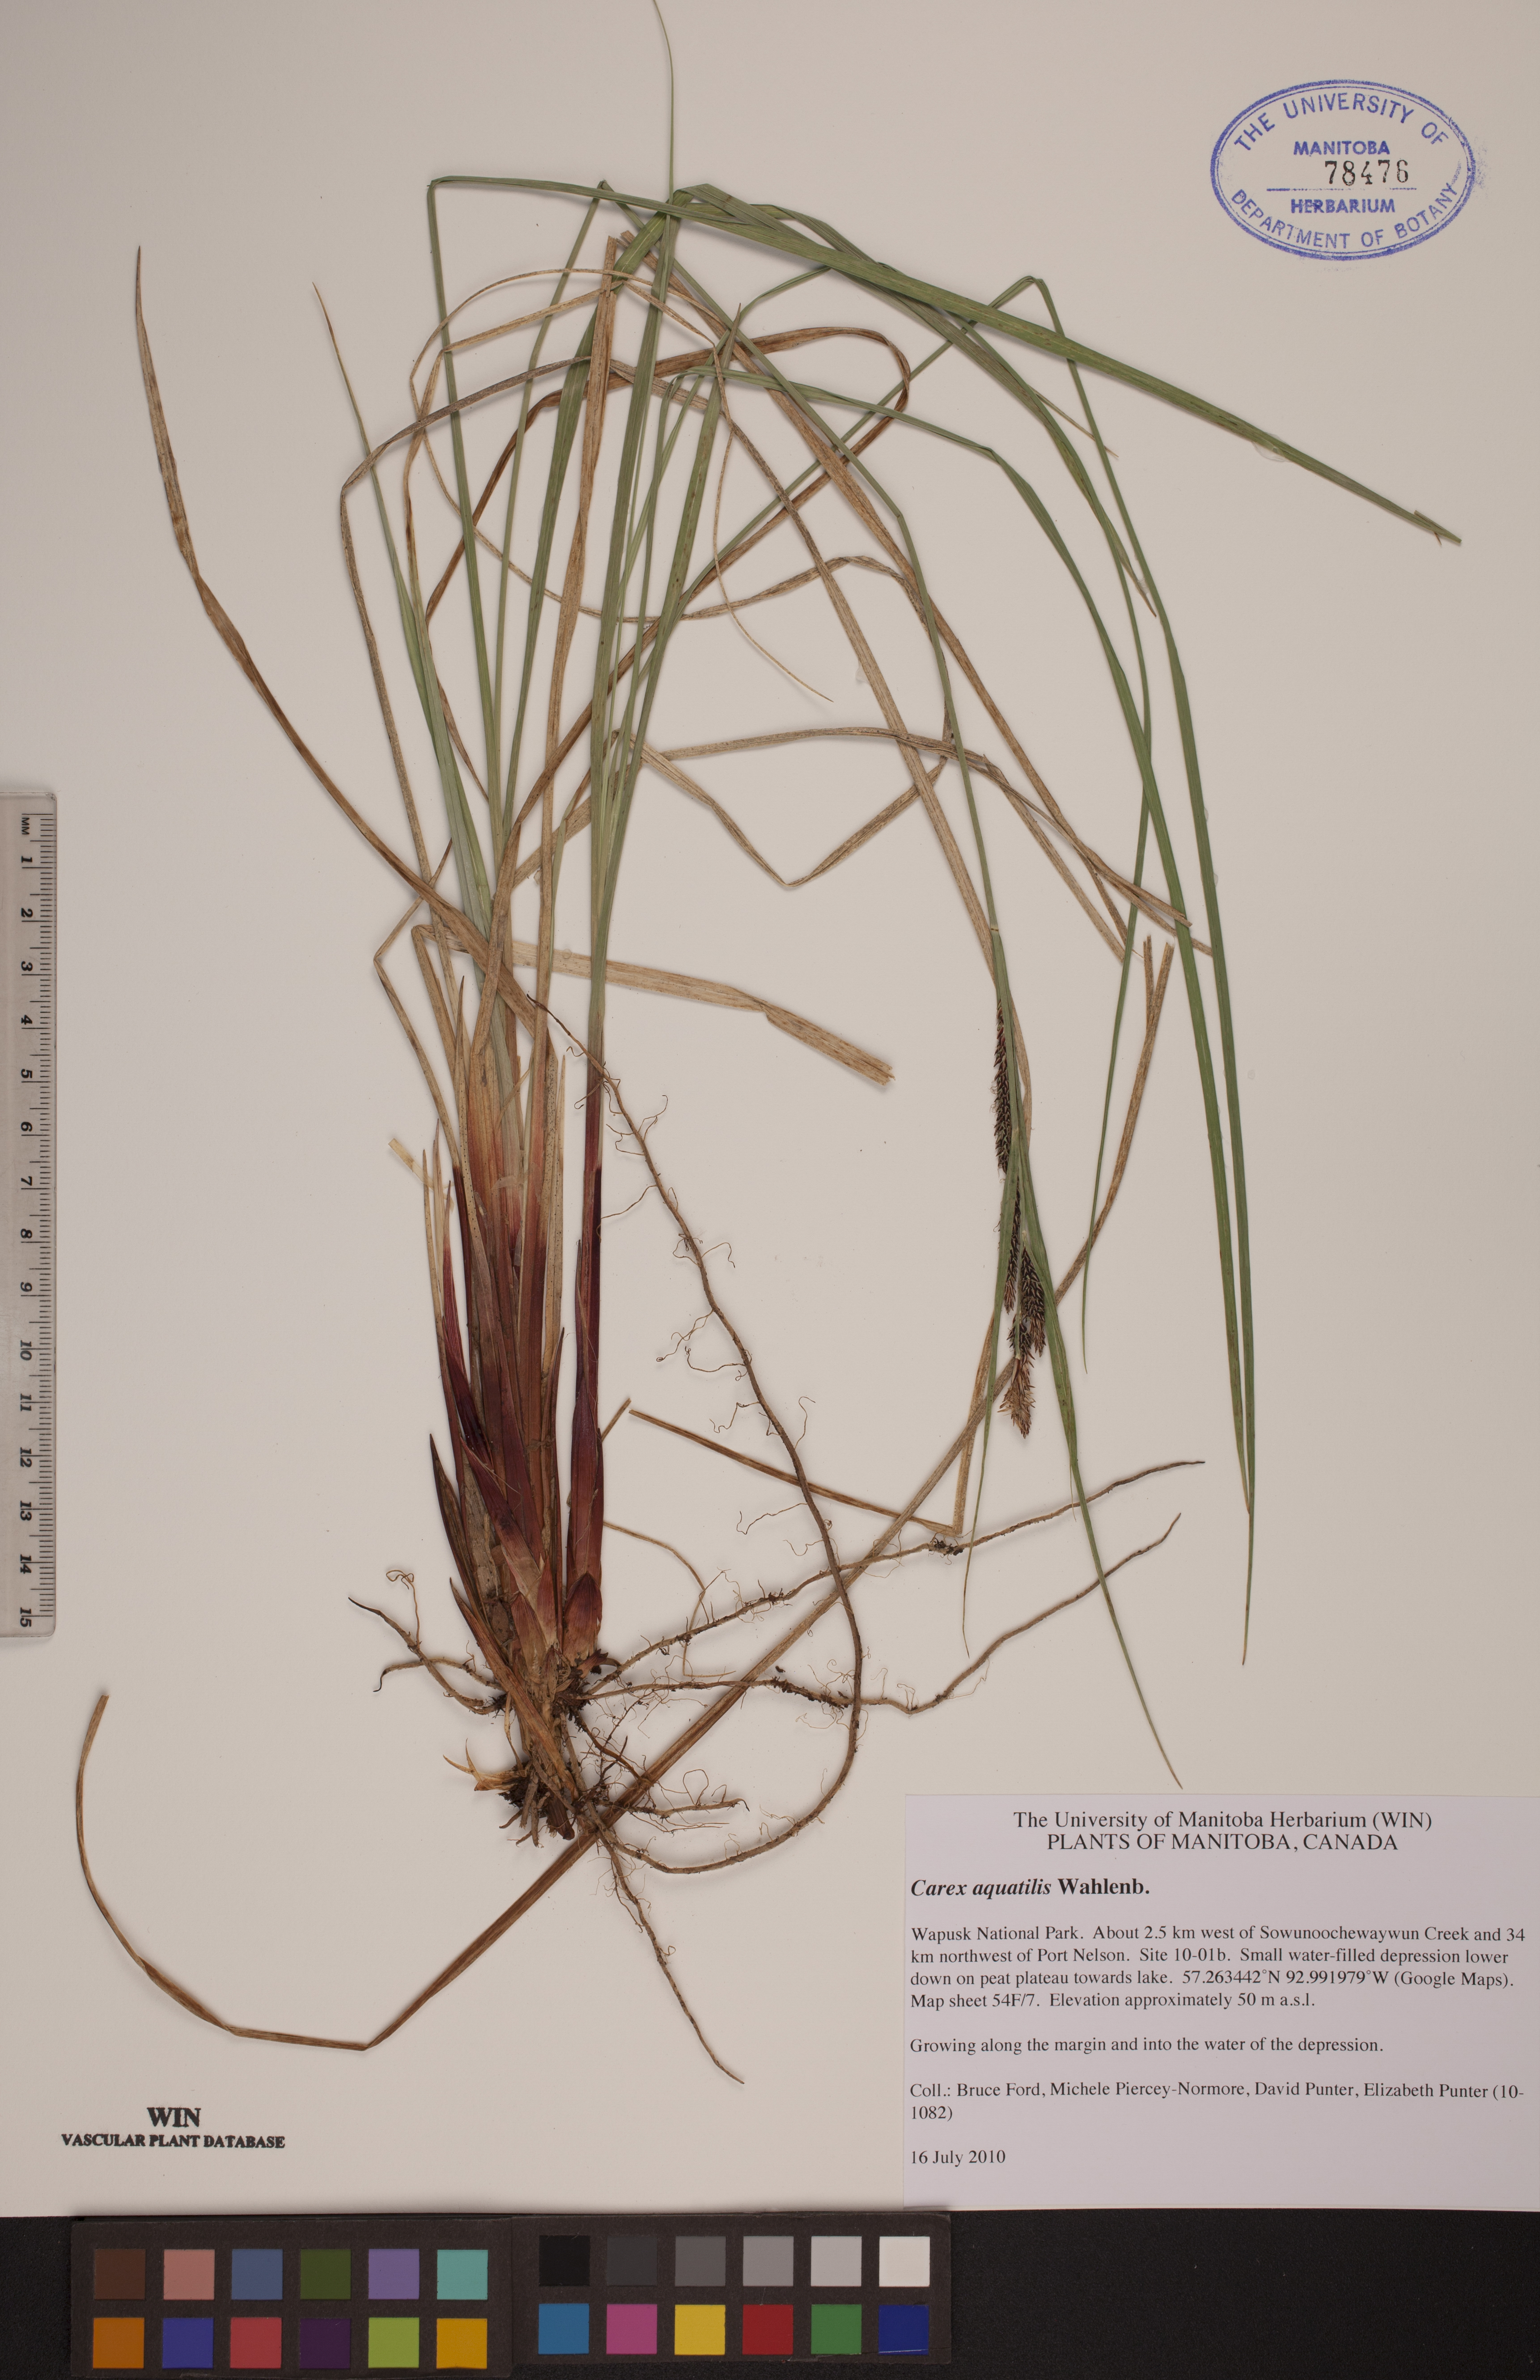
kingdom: Plantae
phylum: Tracheophyta
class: Liliopsida
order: Poales
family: Cyperaceae
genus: Carex
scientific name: Carex aquatilis
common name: Water sedge
